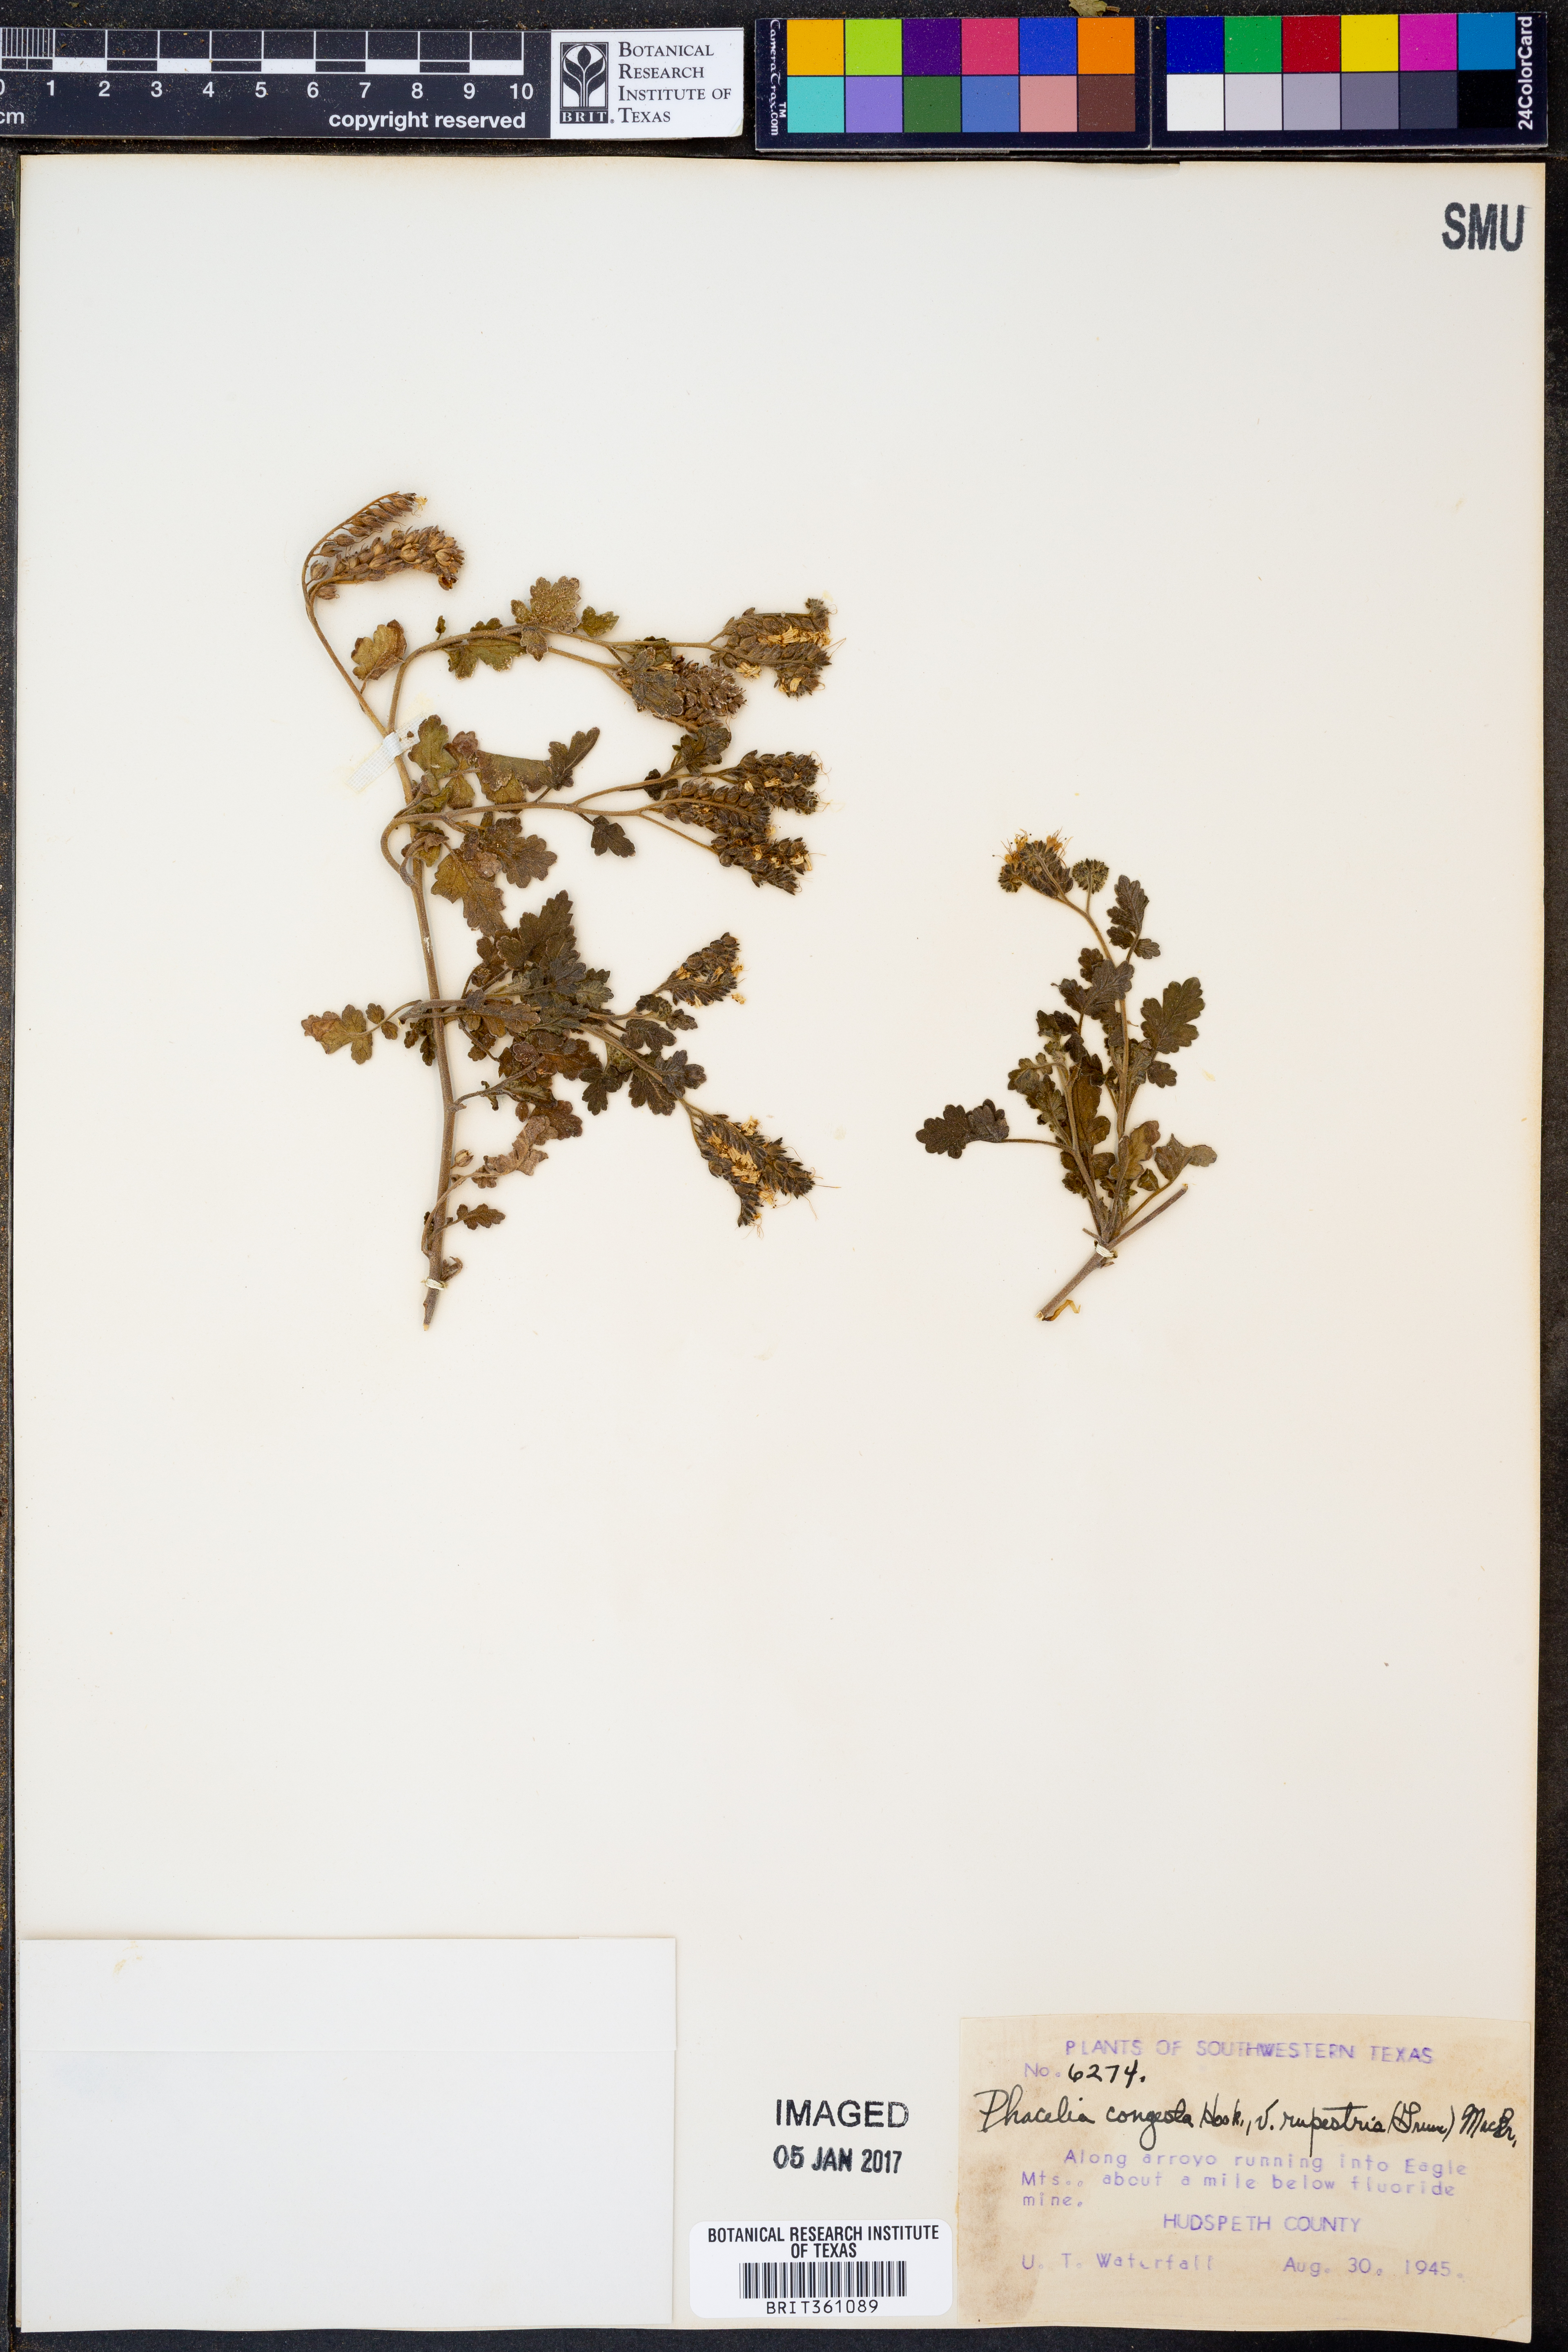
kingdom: Plantae
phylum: Tracheophyta
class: Magnoliopsida
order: Boraginales
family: Hydrophyllaceae
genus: Phacelia
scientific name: Phacelia rupestris
